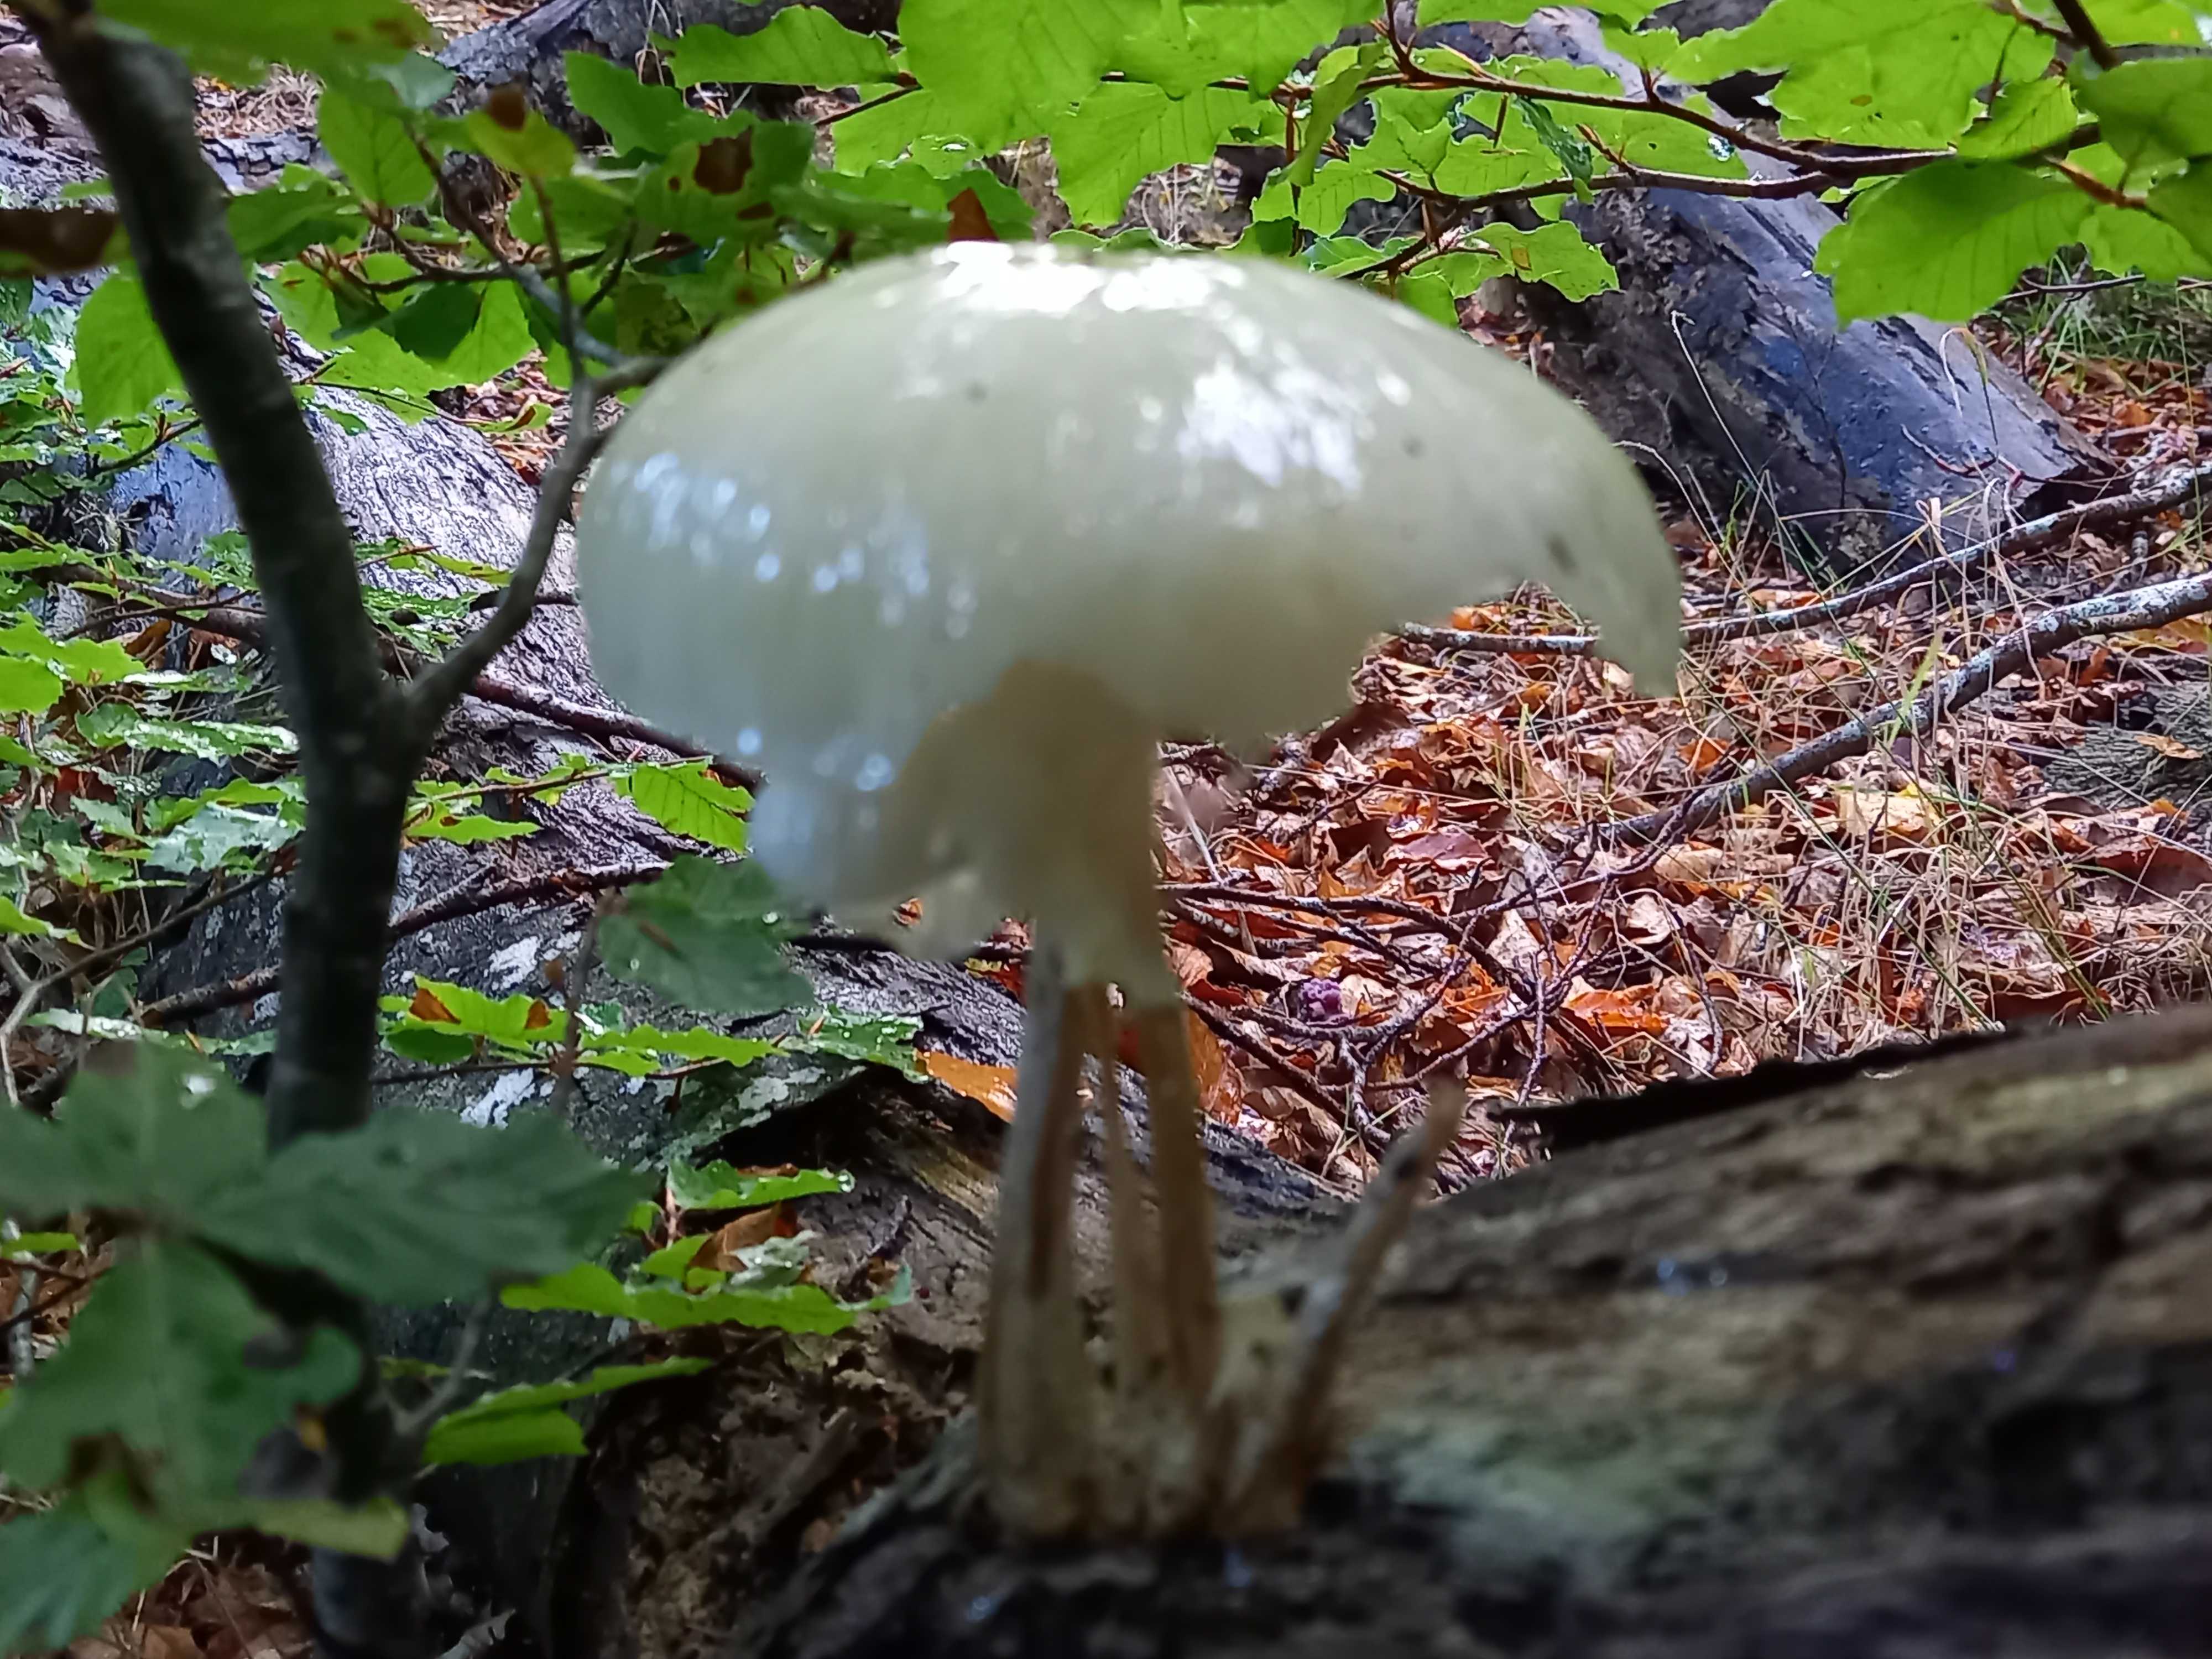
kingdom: Fungi
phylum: Basidiomycota
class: Agaricomycetes
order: Agaricales
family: Physalacriaceae
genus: Mucidula
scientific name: Mucidula mucida
